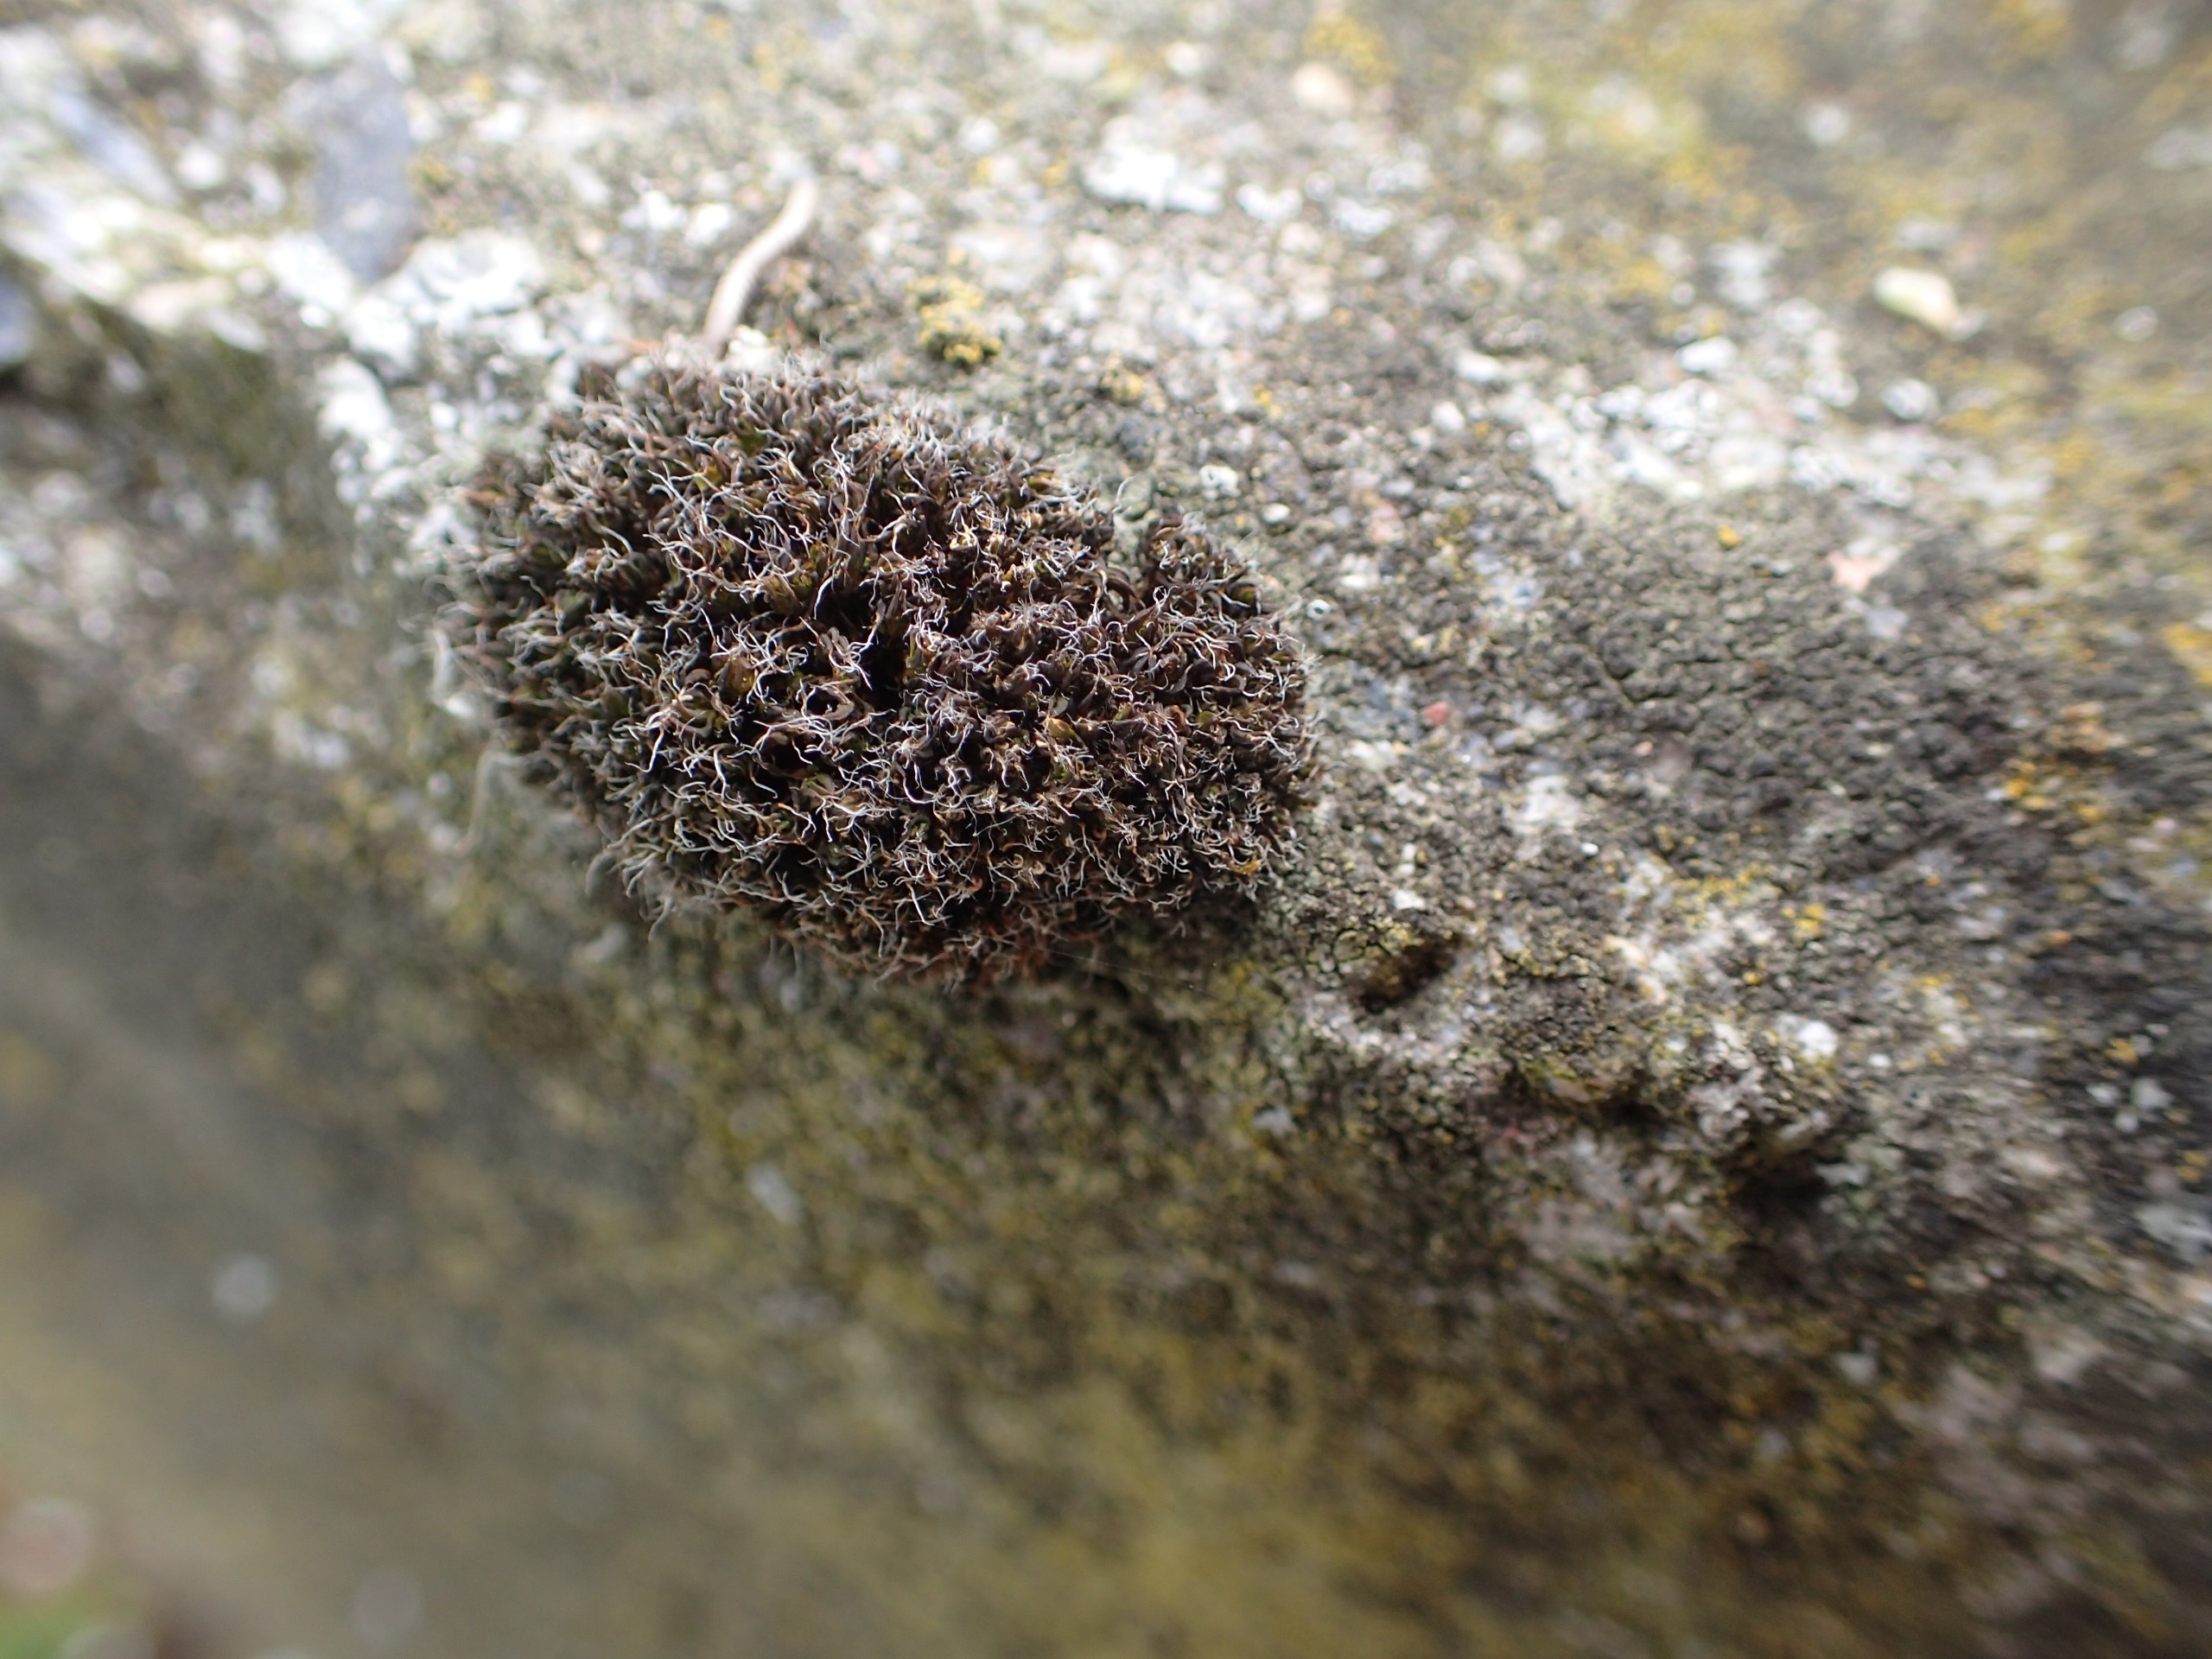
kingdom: Plantae
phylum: Bryophyta
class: Bryopsida
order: Pottiales
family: Pottiaceae
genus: Syntrichia
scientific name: Syntrichia
